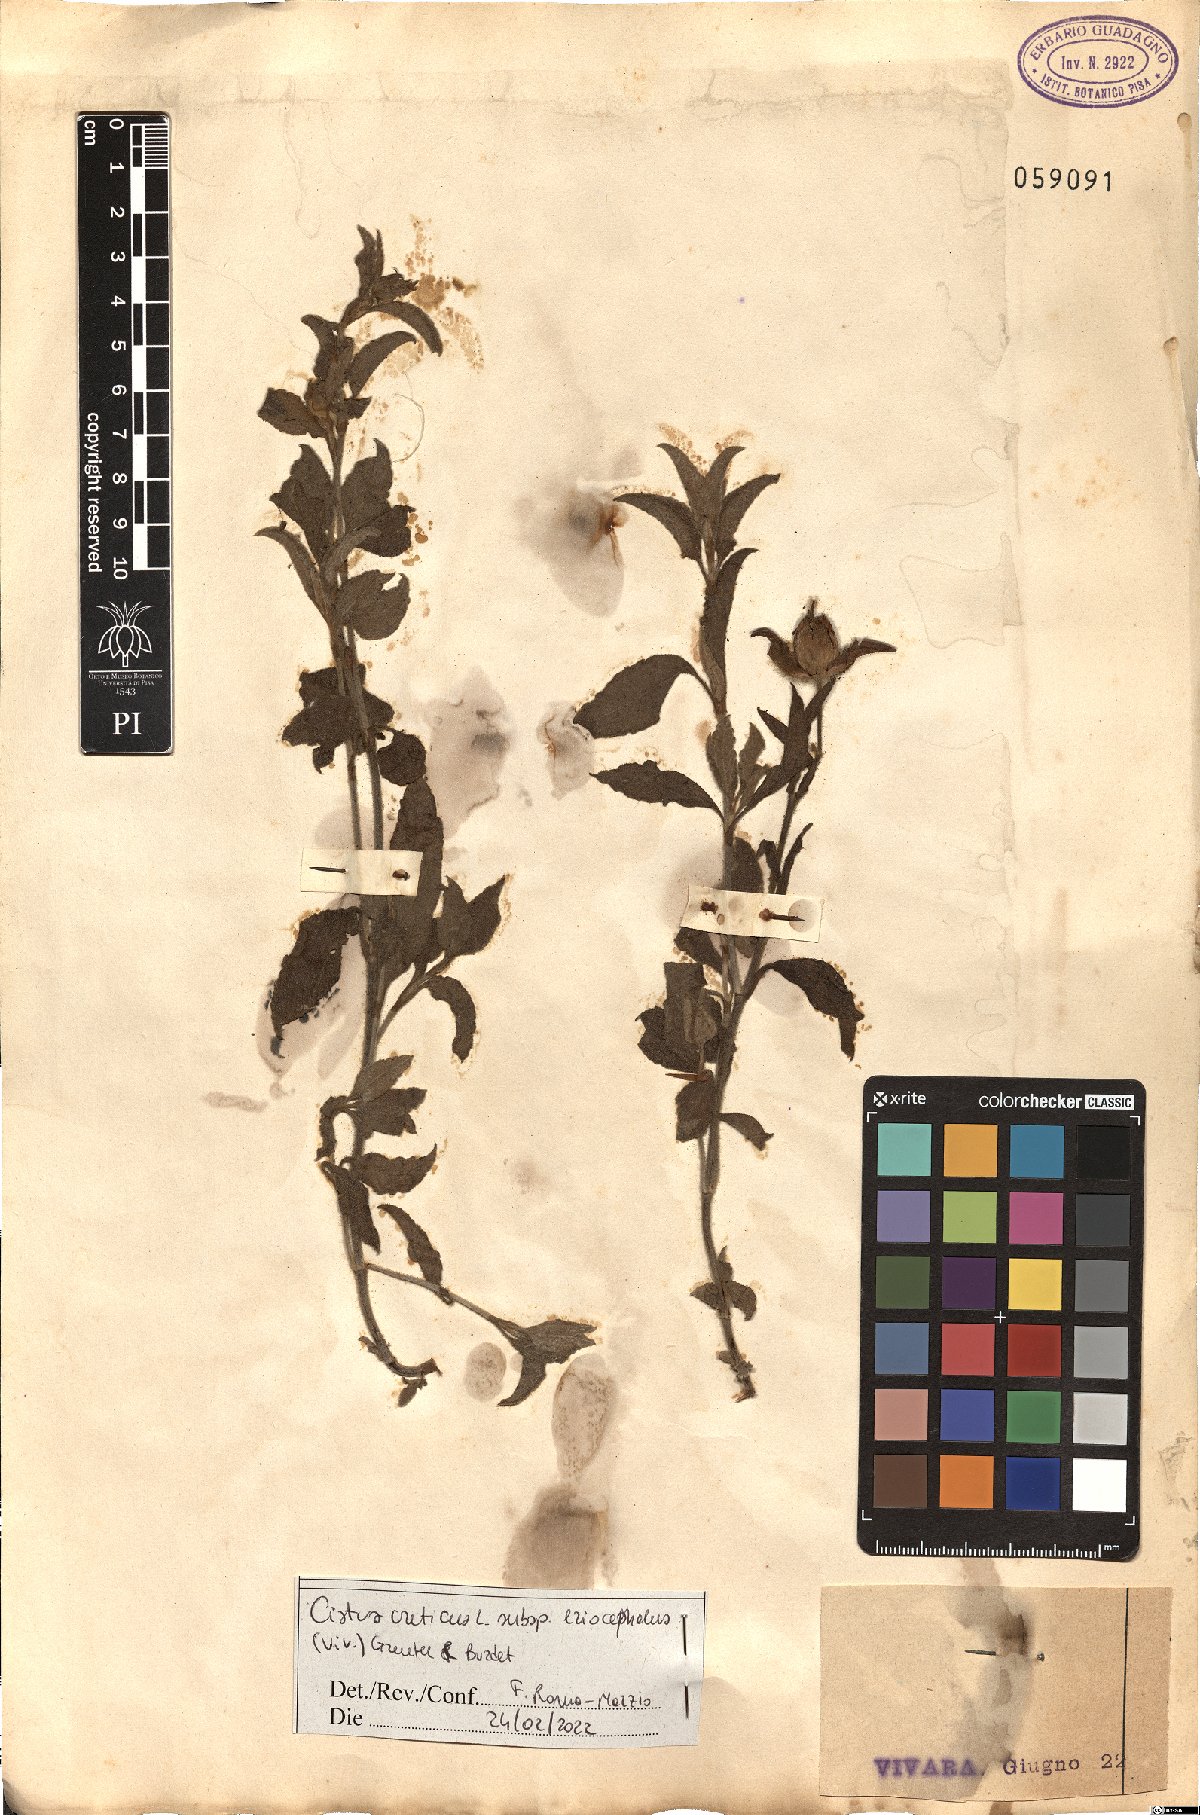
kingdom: Plantae
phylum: Tracheophyta
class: Magnoliopsida
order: Malvales
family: Cistaceae
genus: Cistus
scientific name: Cistus tauricus
